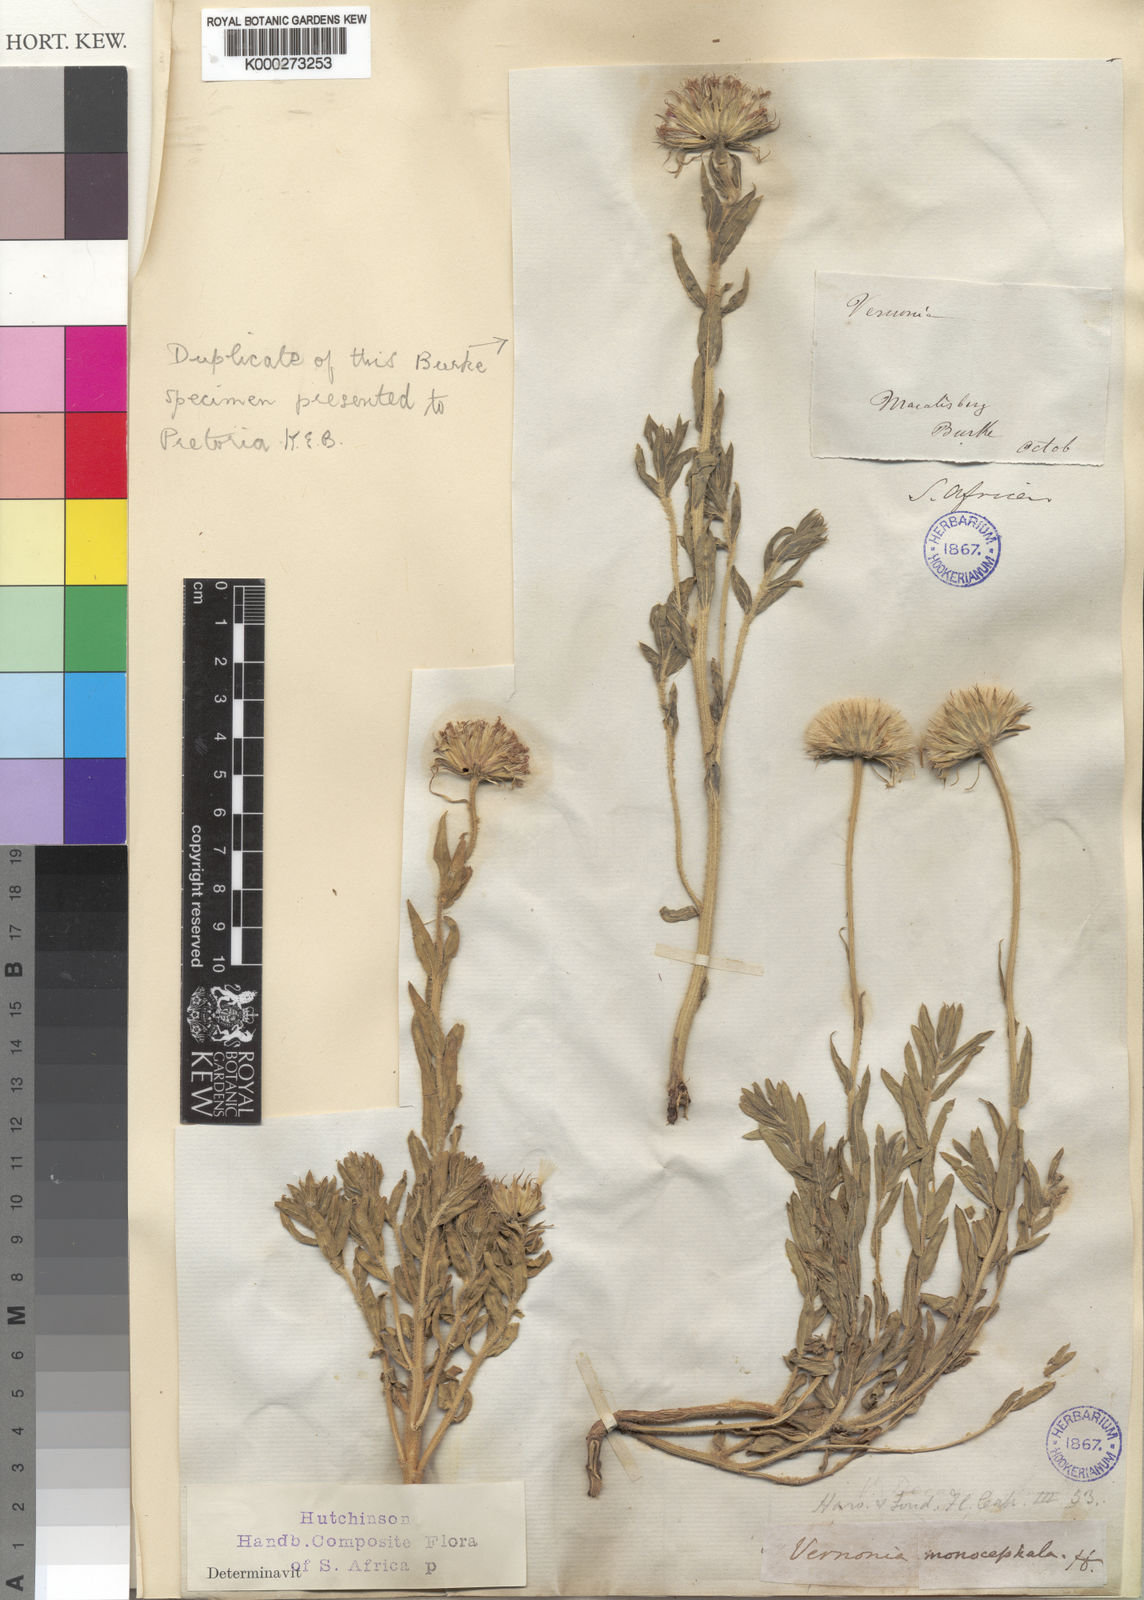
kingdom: Plantae
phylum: Tracheophyta
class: Magnoliopsida
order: Asterales
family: Asteraceae
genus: Pseudopegolettia
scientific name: Pseudopegolettia tenella
